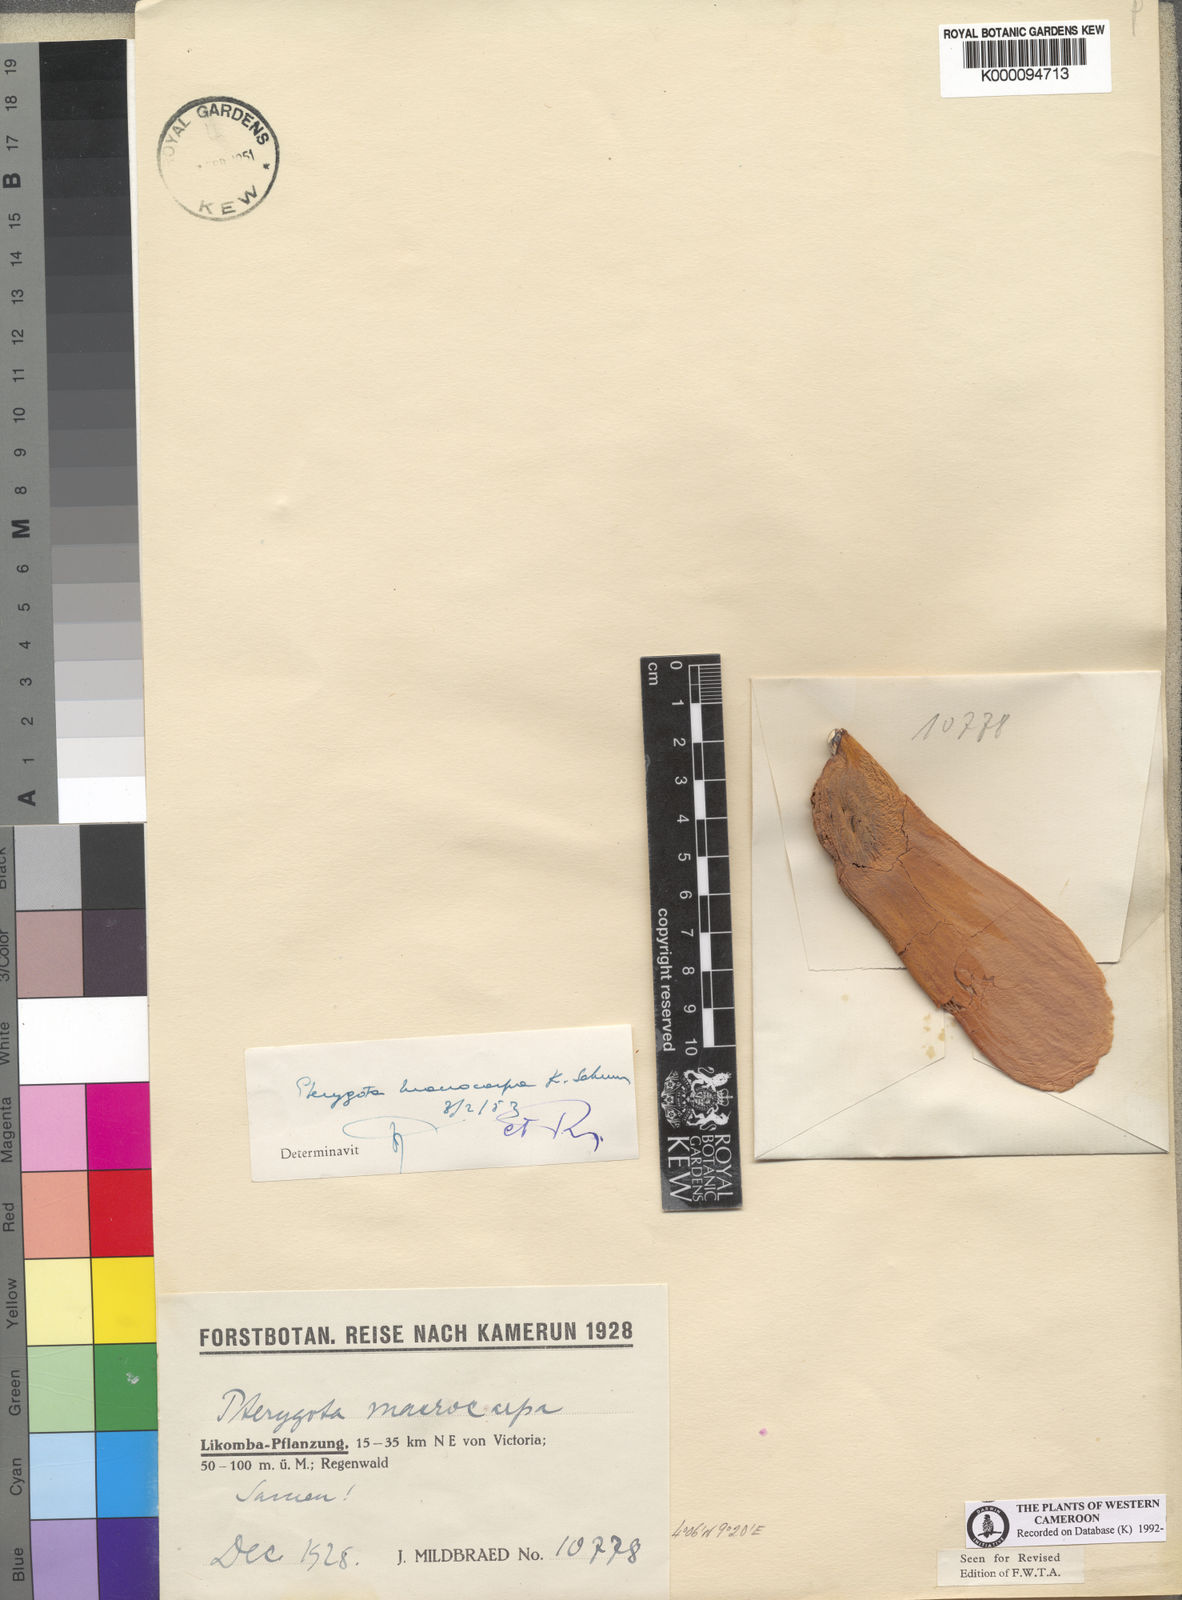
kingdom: Plantae
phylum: Tracheophyta
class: Magnoliopsida
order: Malvales
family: Malvaceae
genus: Pterygota
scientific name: Pterygota macrocarpa
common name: African pterygota
